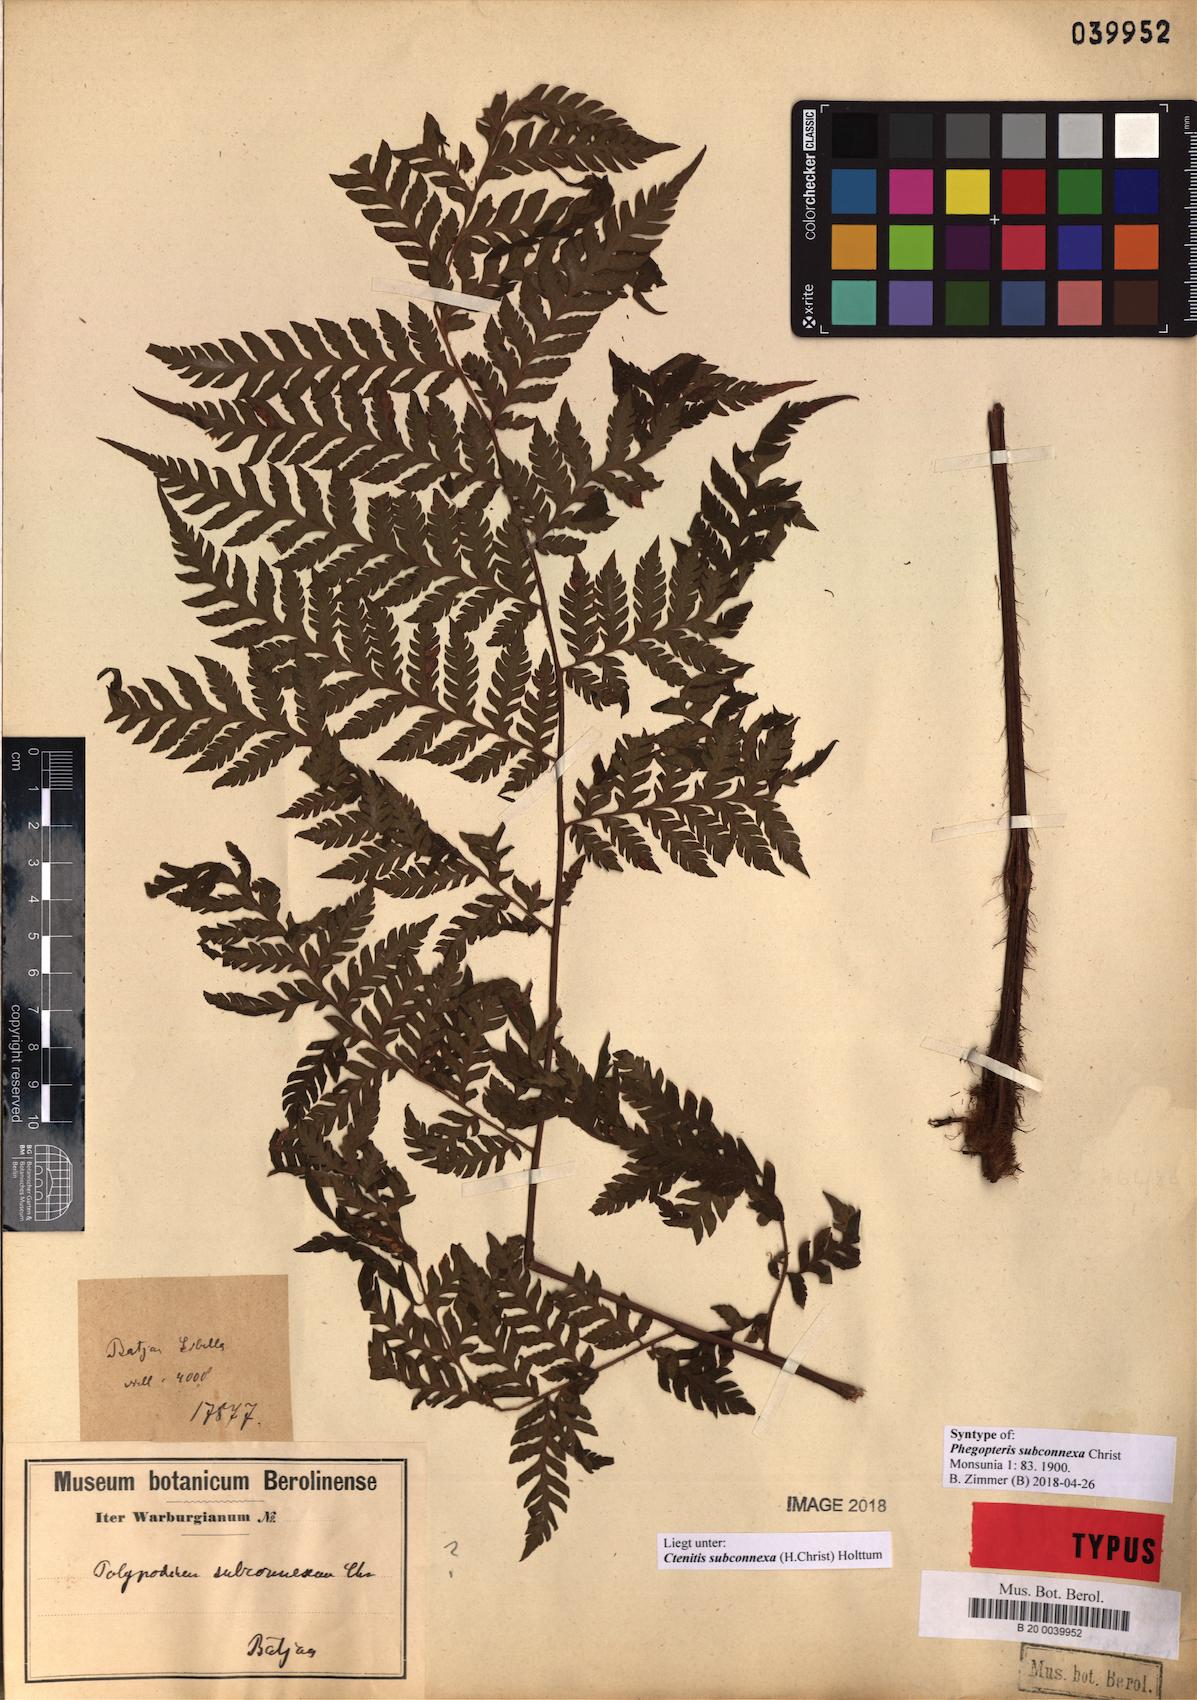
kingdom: Plantae
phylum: Tracheophyta
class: Polypodiopsida
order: Polypodiales
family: Dryopteridaceae
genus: Ctenitis
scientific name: Ctenitis subconnexa
